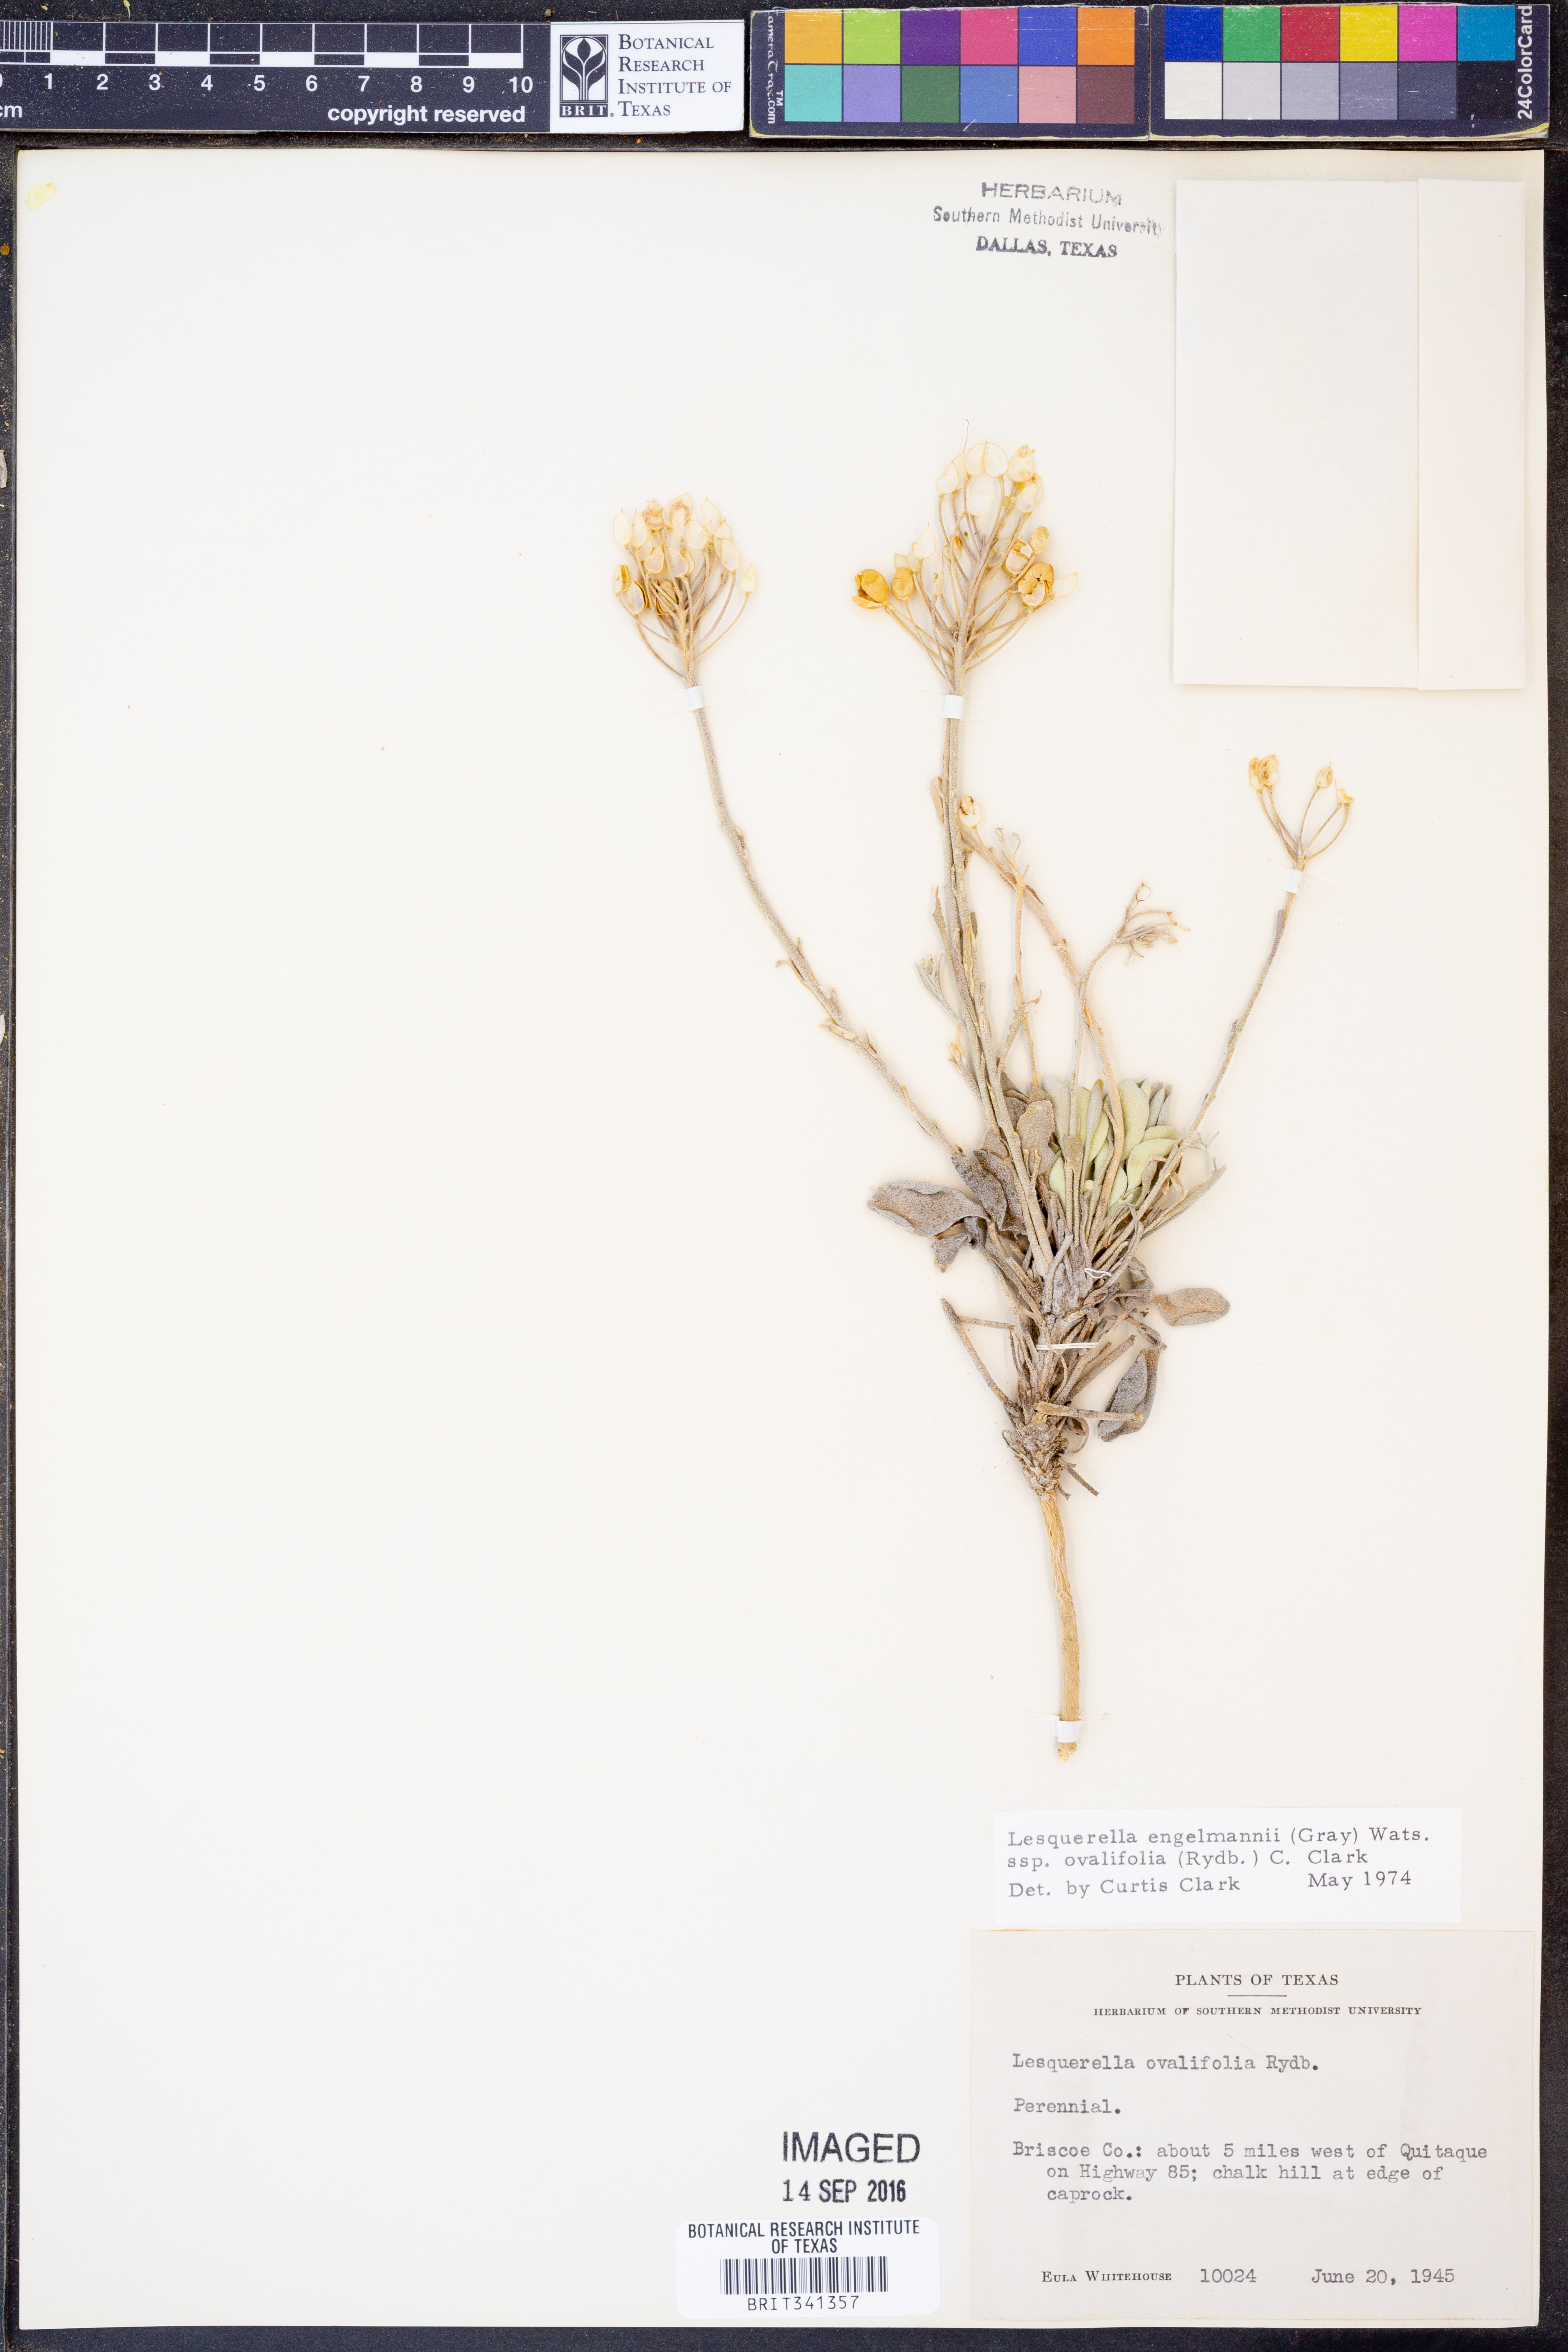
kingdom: Plantae
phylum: Tracheophyta
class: Magnoliopsida
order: Brassicales
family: Brassicaceae
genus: Physaria
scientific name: Physaria ovalifolia
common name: Round-leaf bladderpod
